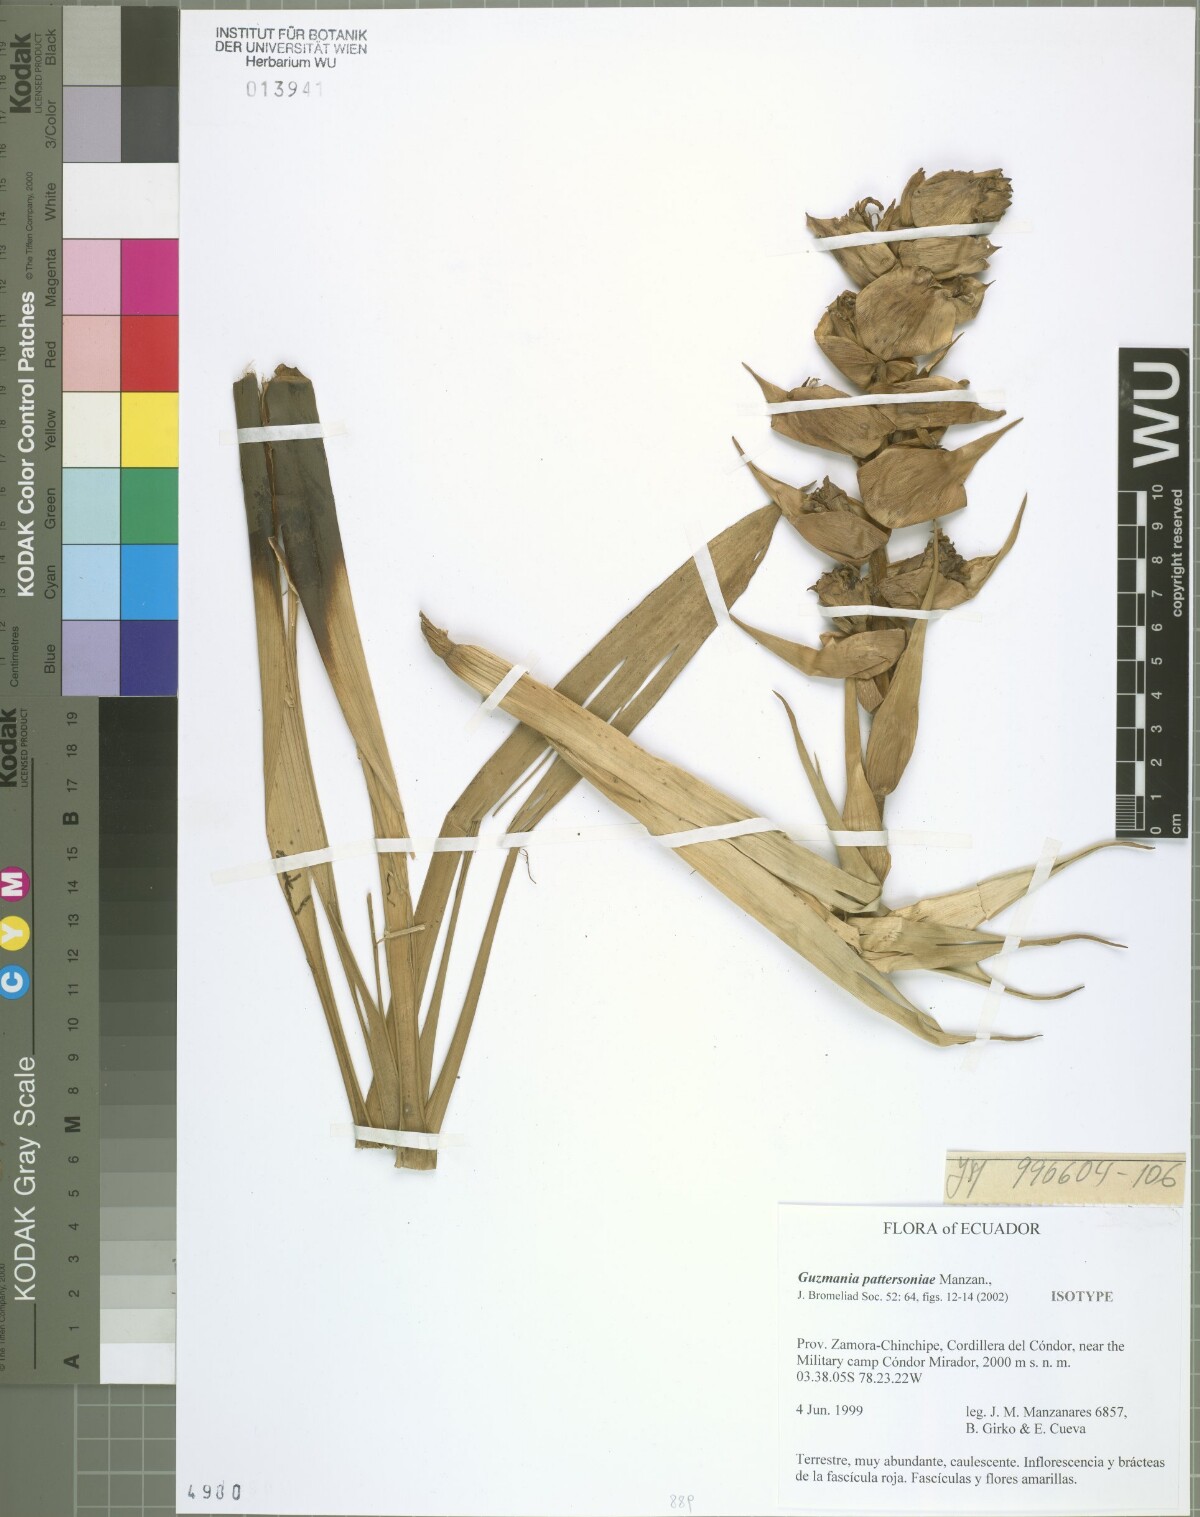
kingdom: Plantae
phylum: Tracheophyta
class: Liliopsida
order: Poales
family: Bromeliaceae
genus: Guzmania
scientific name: Guzmania pattersoniae
